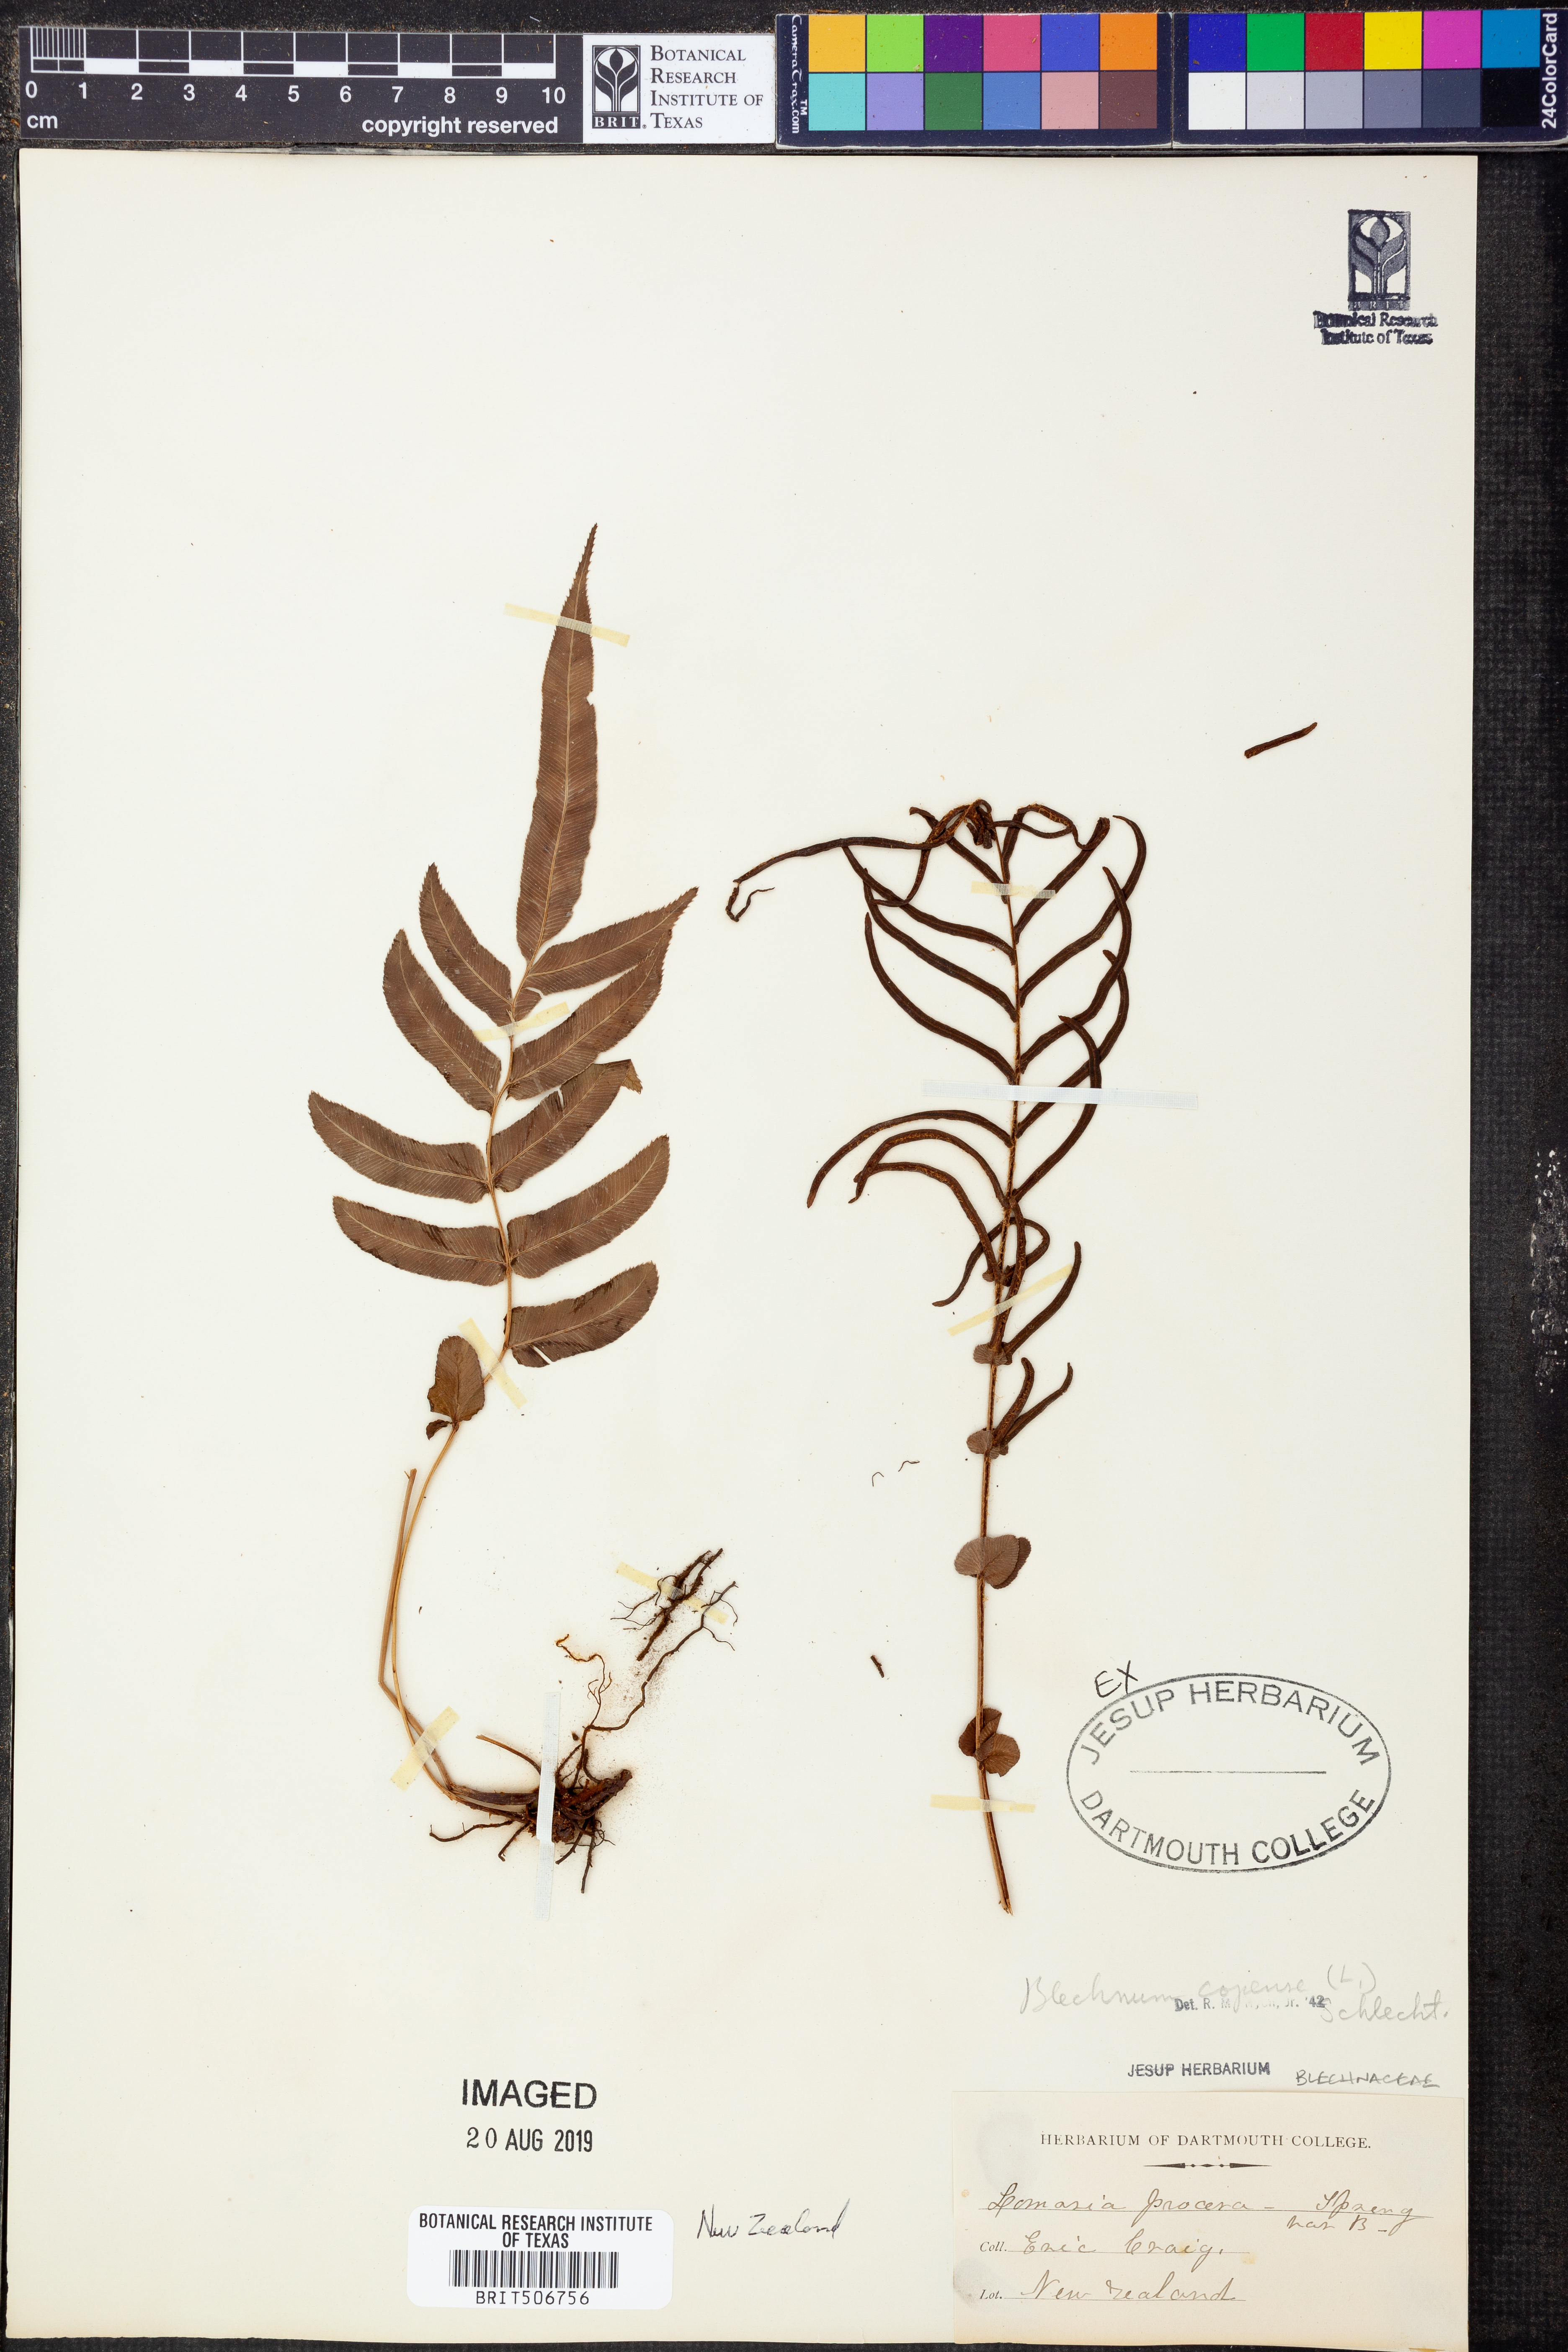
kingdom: Plantae
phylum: Tracheophyta
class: Polypodiopsida
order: Polypodiales
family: Blechnaceae
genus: Parablechnum
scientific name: Parablechnum capense
